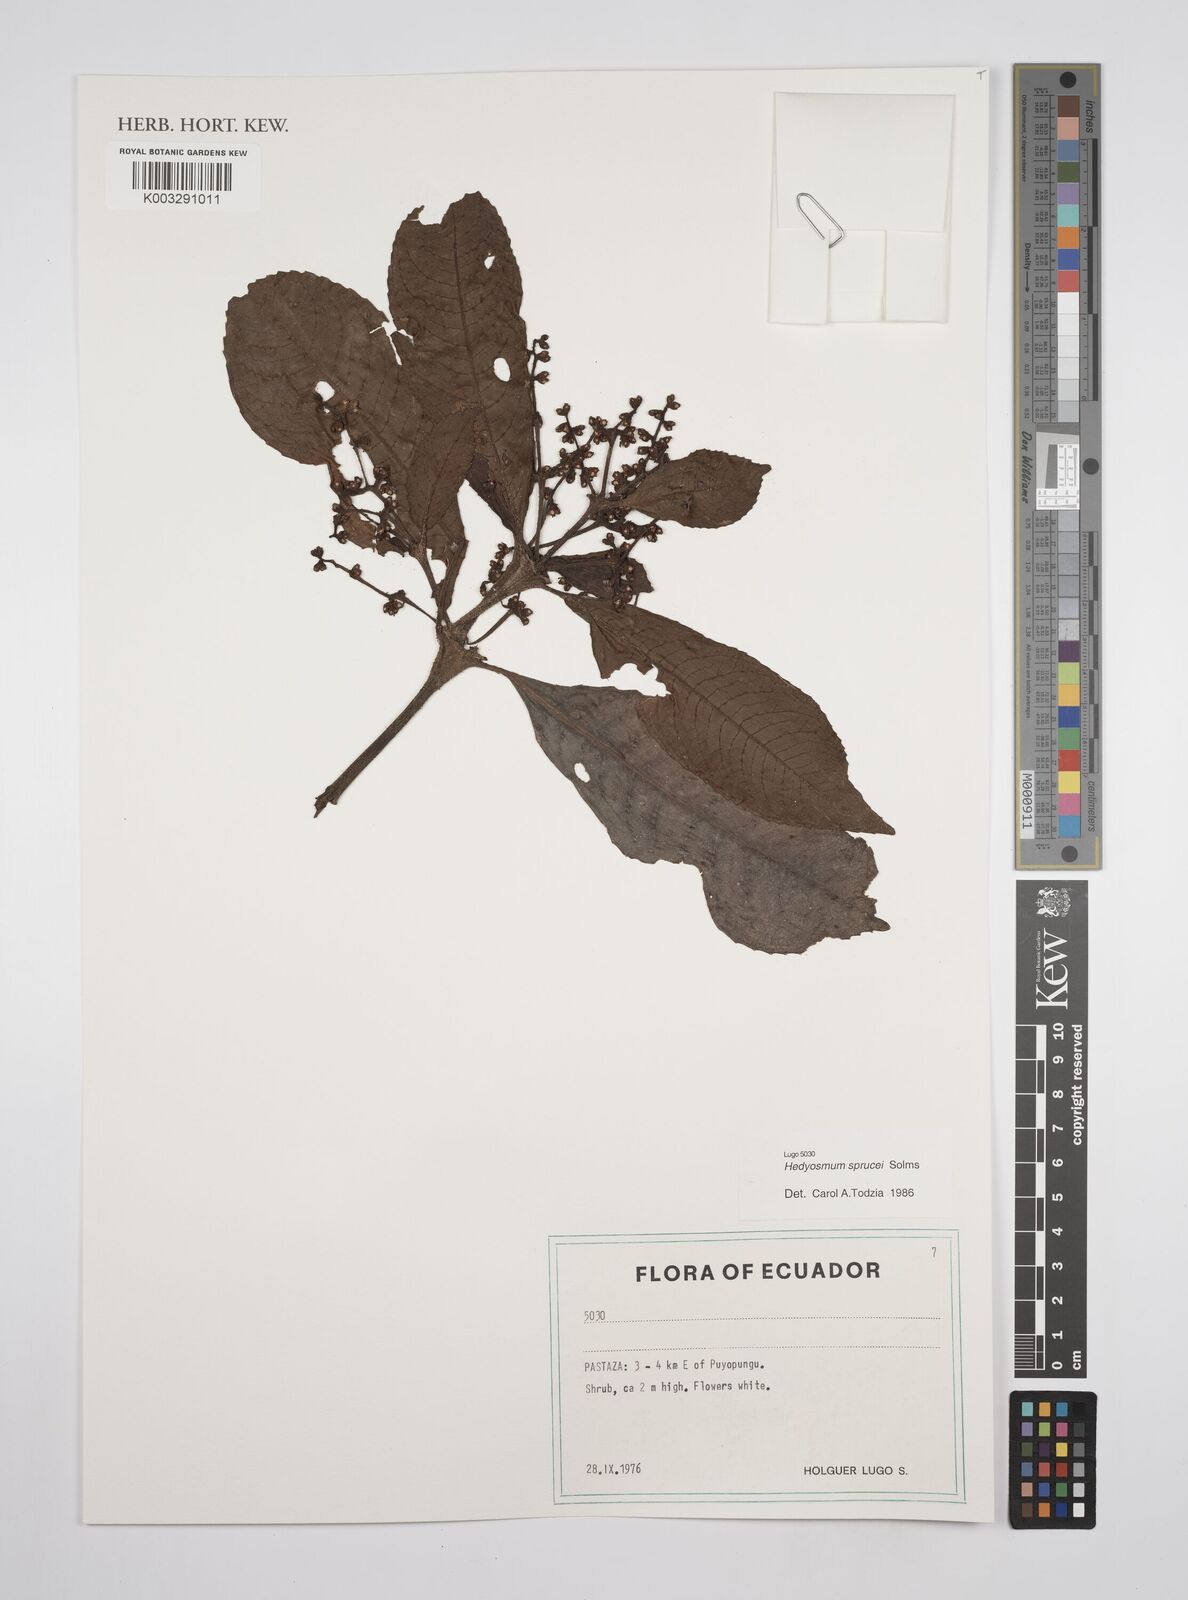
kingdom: Plantae
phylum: Tracheophyta
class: Magnoliopsida
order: Chloranthales
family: Chloranthaceae
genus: Hedyosmum
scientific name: Hedyosmum sprucei
